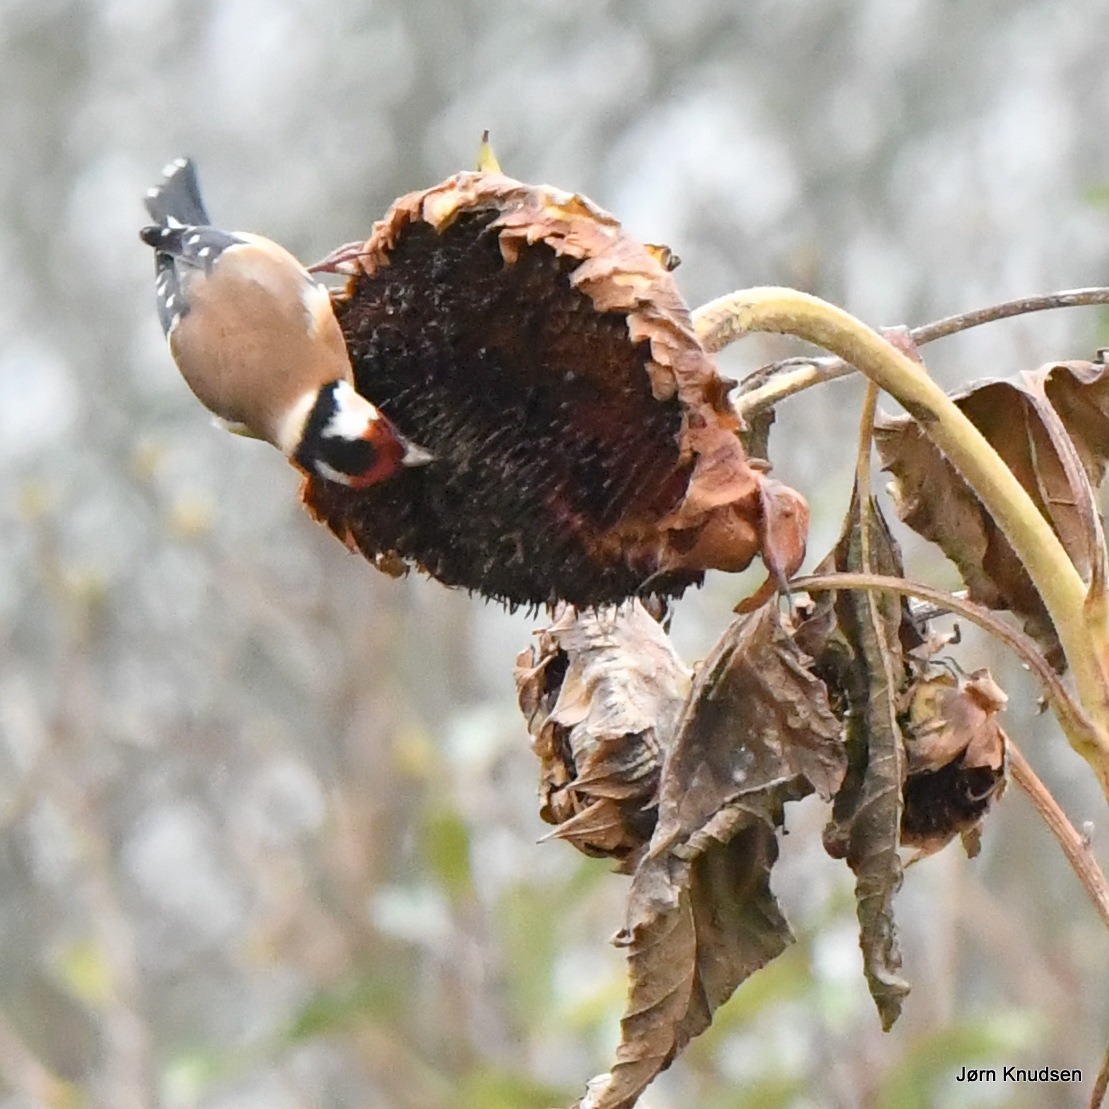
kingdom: Animalia
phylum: Chordata
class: Aves
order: Passeriformes
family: Fringillidae
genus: Carduelis
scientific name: Carduelis carduelis
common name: Stillits
